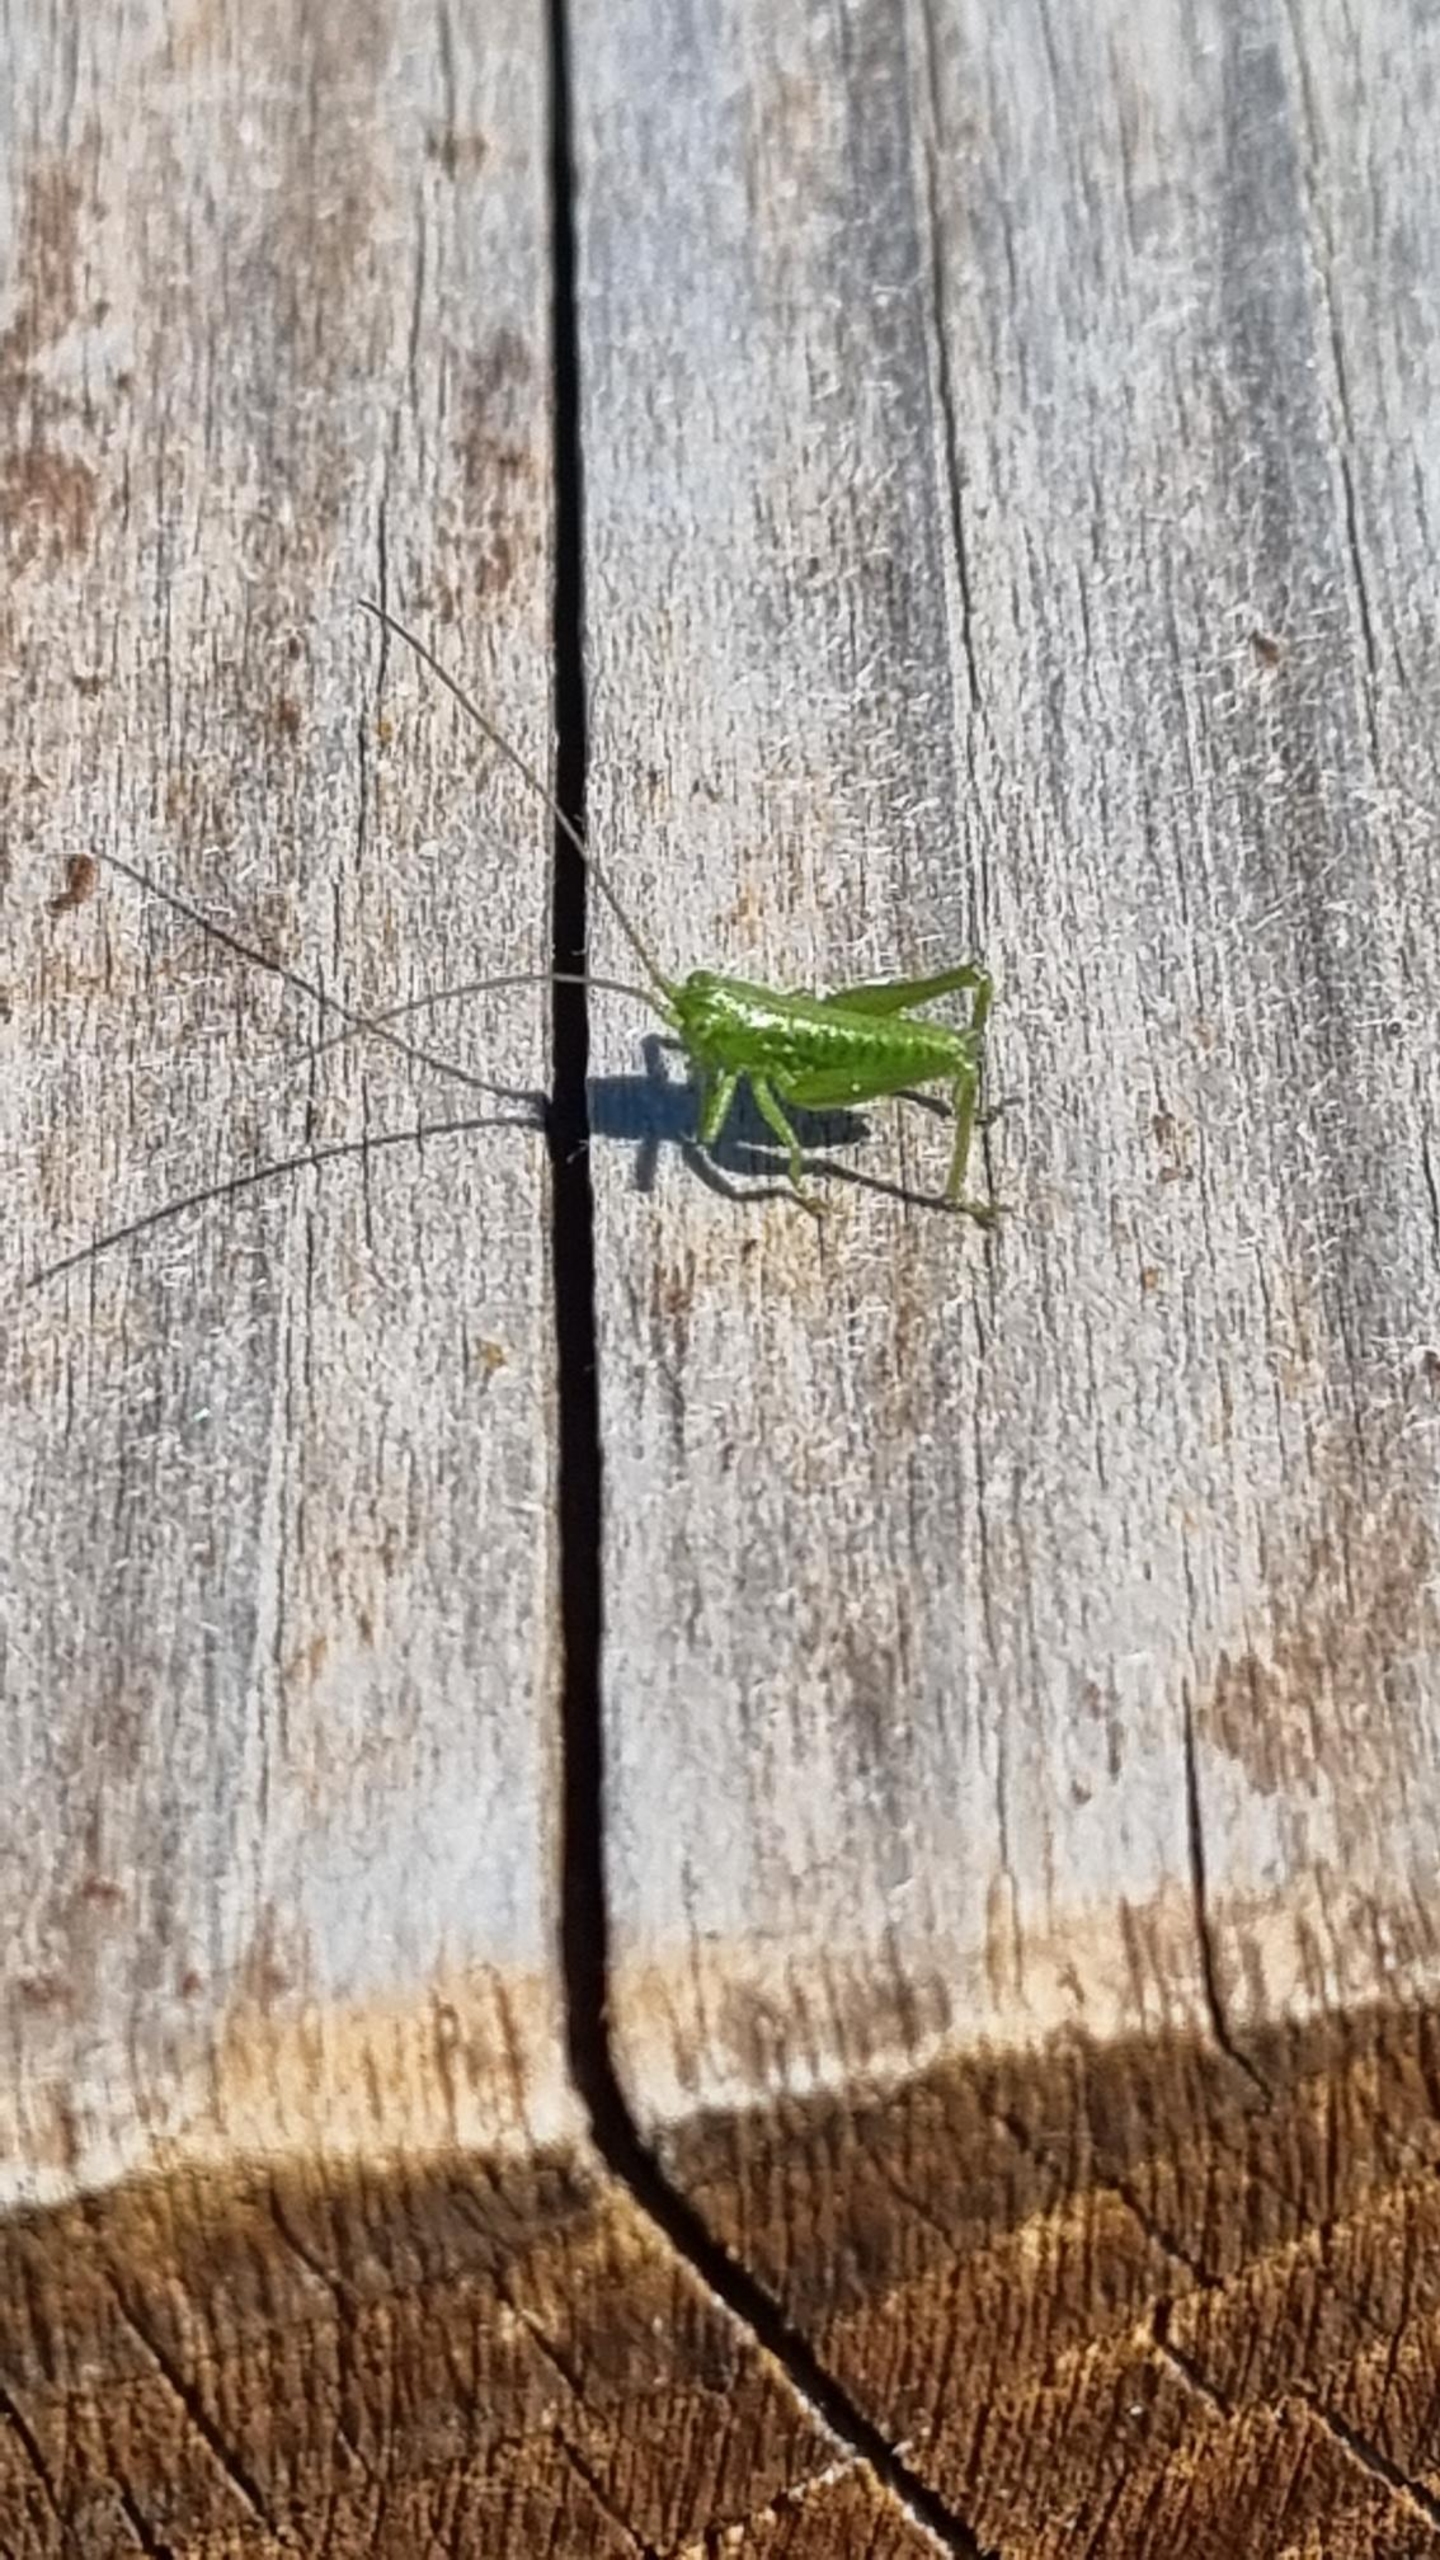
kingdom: Animalia
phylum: Arthropoda
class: Insecta
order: Orthoptera
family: Tettigoniidae
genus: Tettigonia
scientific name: Tettigonia viridissima
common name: Stor grøn løvgræshoppe
